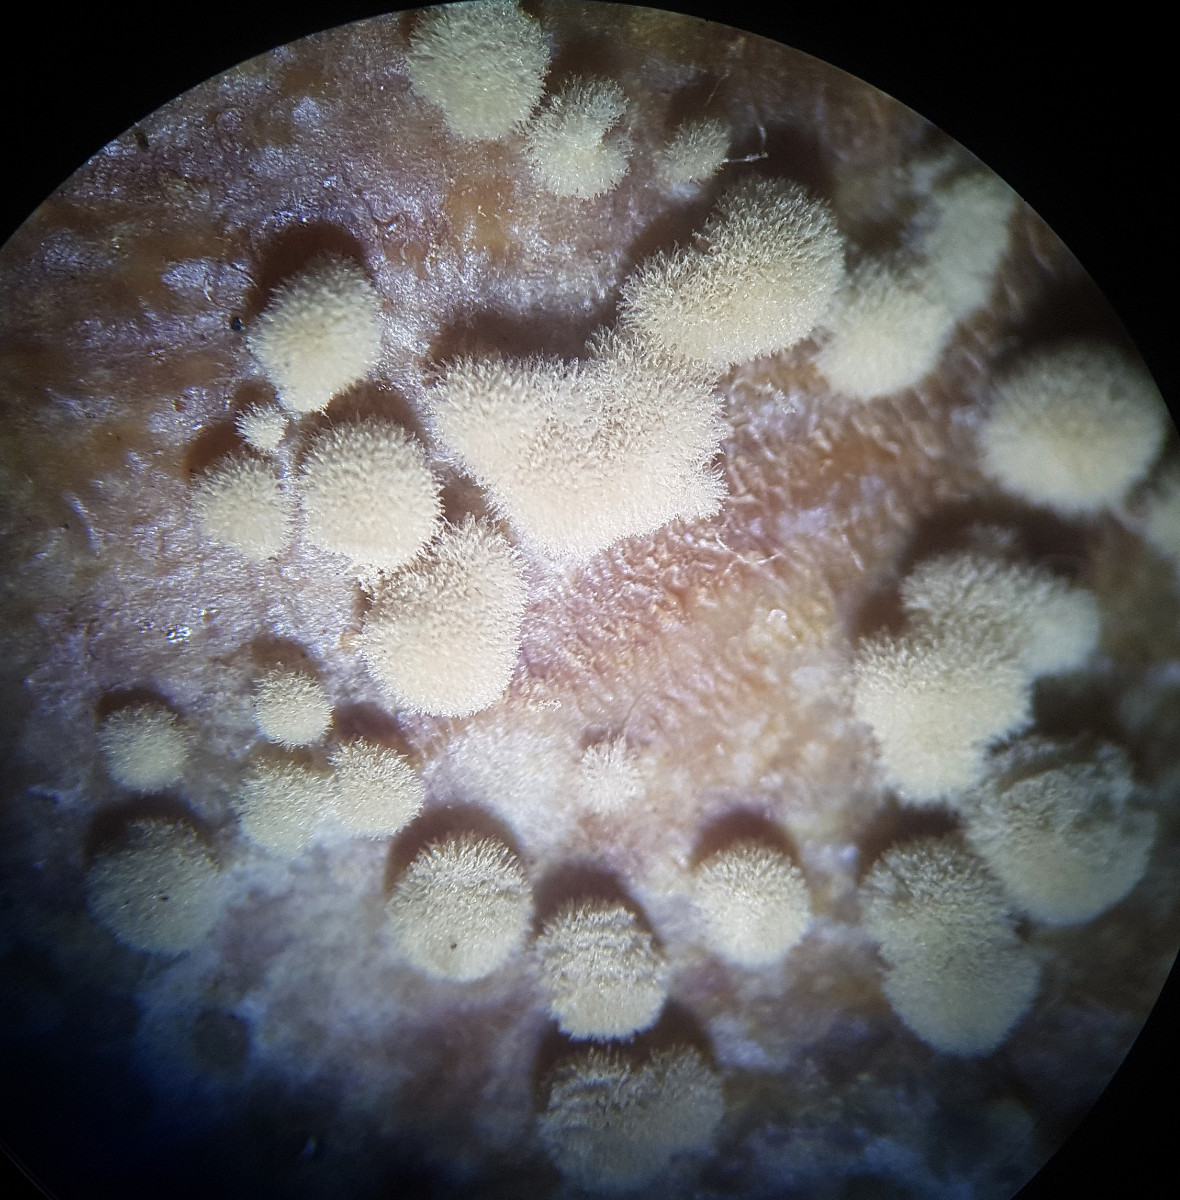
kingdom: Fungi
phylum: Ascomycota
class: Leotiomycetes
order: Helotiales
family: Sclerotiniaceae
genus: Monilinia
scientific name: Monilinia fructigena
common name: æble-knoldskive
